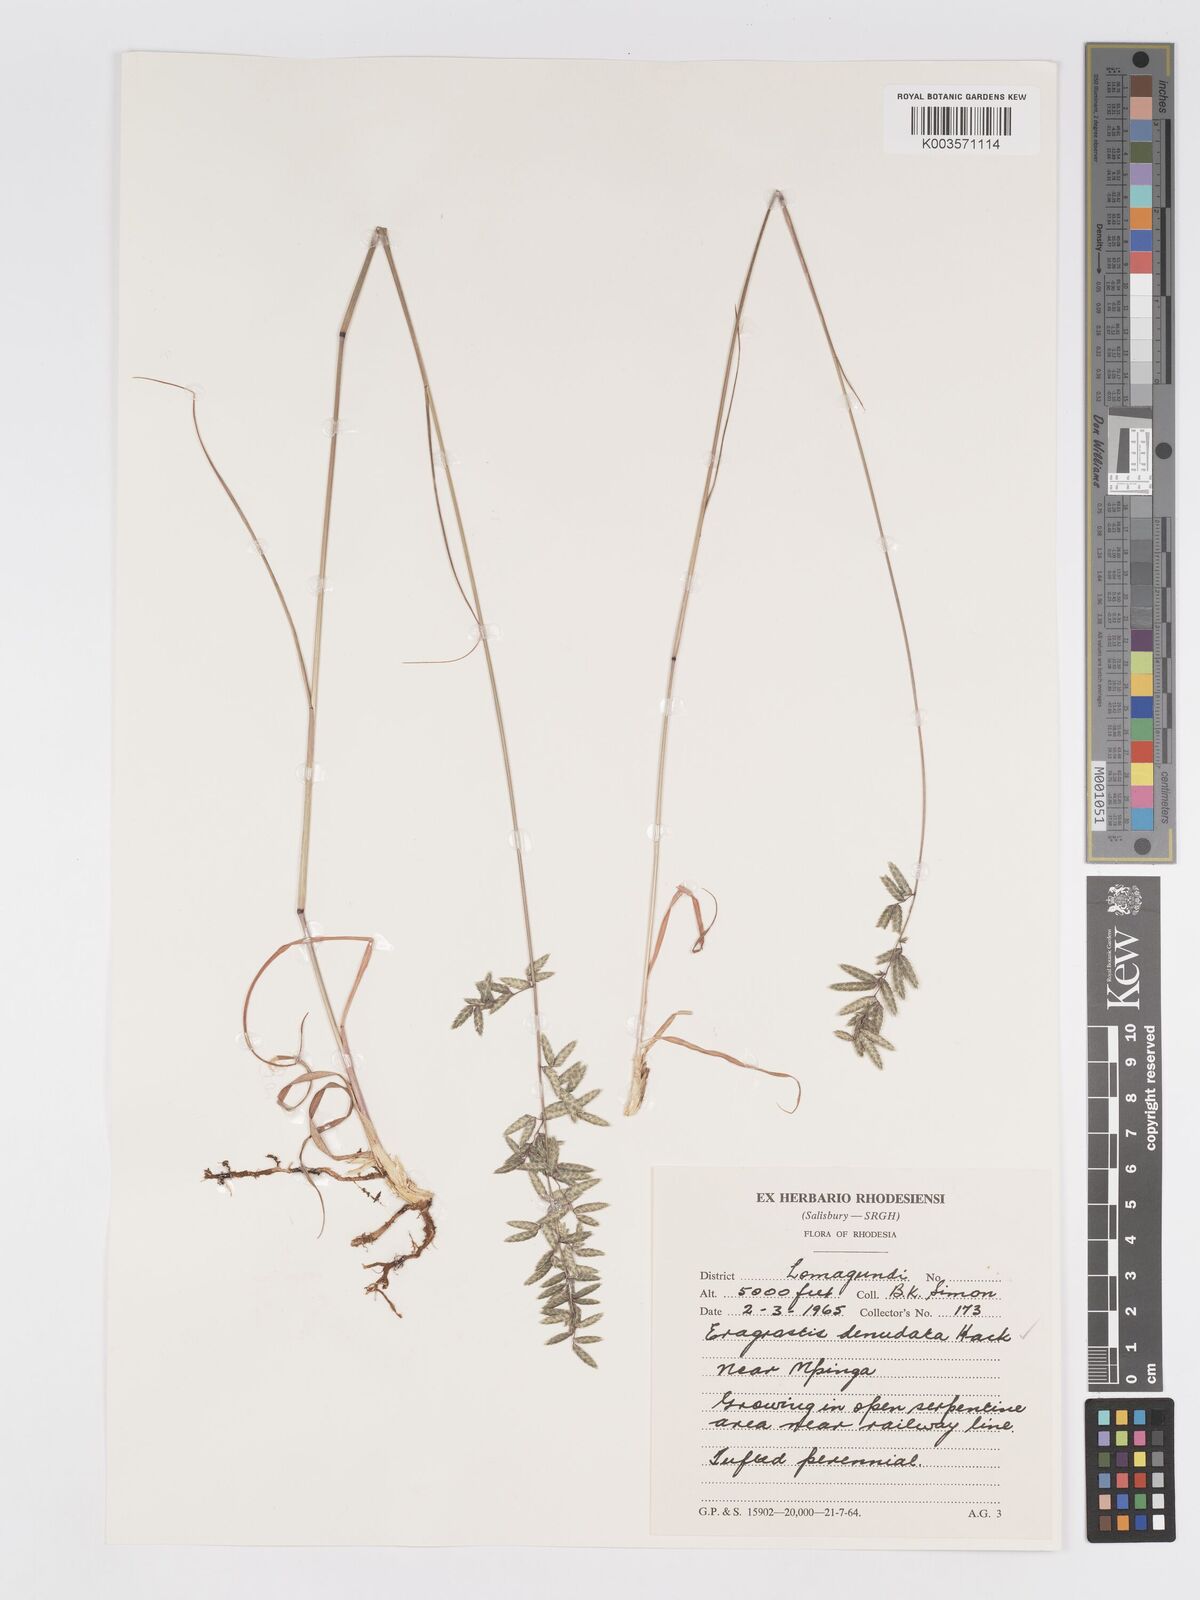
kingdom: Plantae
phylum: Tracheophyta
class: Liliopsida
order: Poales
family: Poaceae
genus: Eragrostis
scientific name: Eragrostis nindensis
